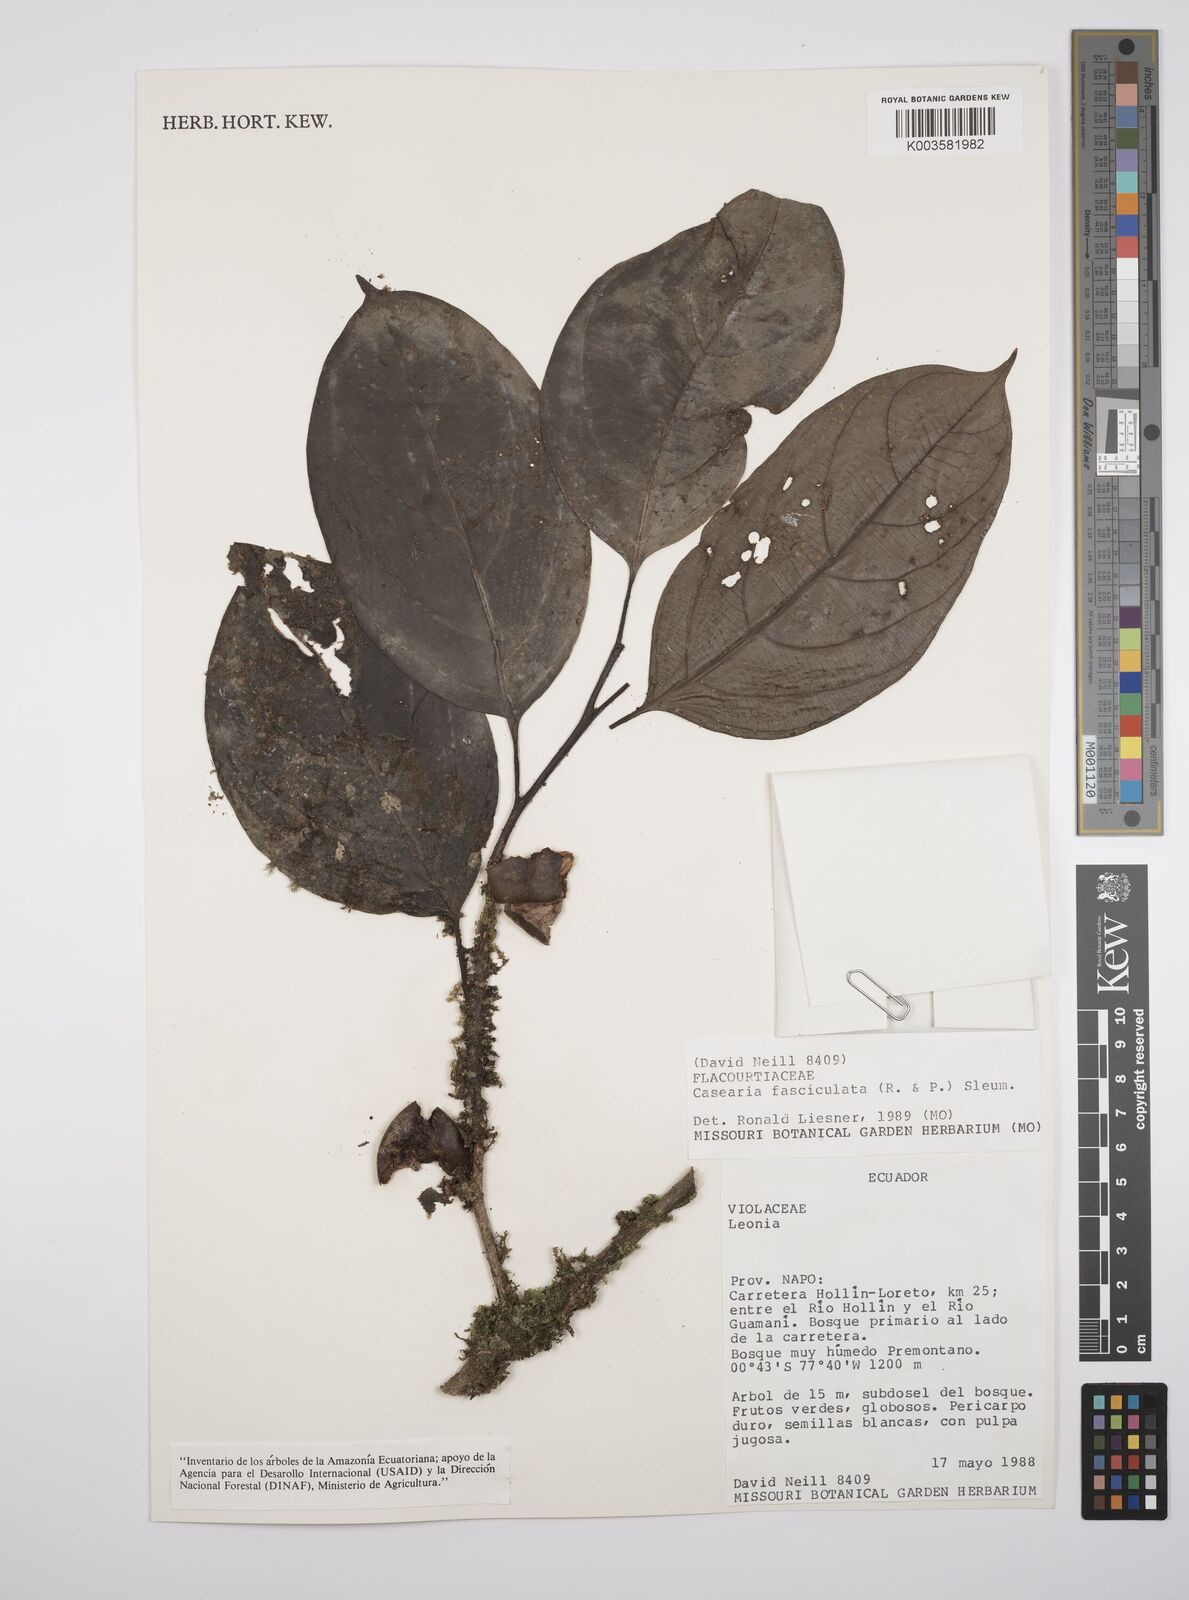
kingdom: Plantae
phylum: Tracheophyta
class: Magnoliopsida
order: Malpighiales
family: Salicaceae
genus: Casearia
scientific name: Casearia
